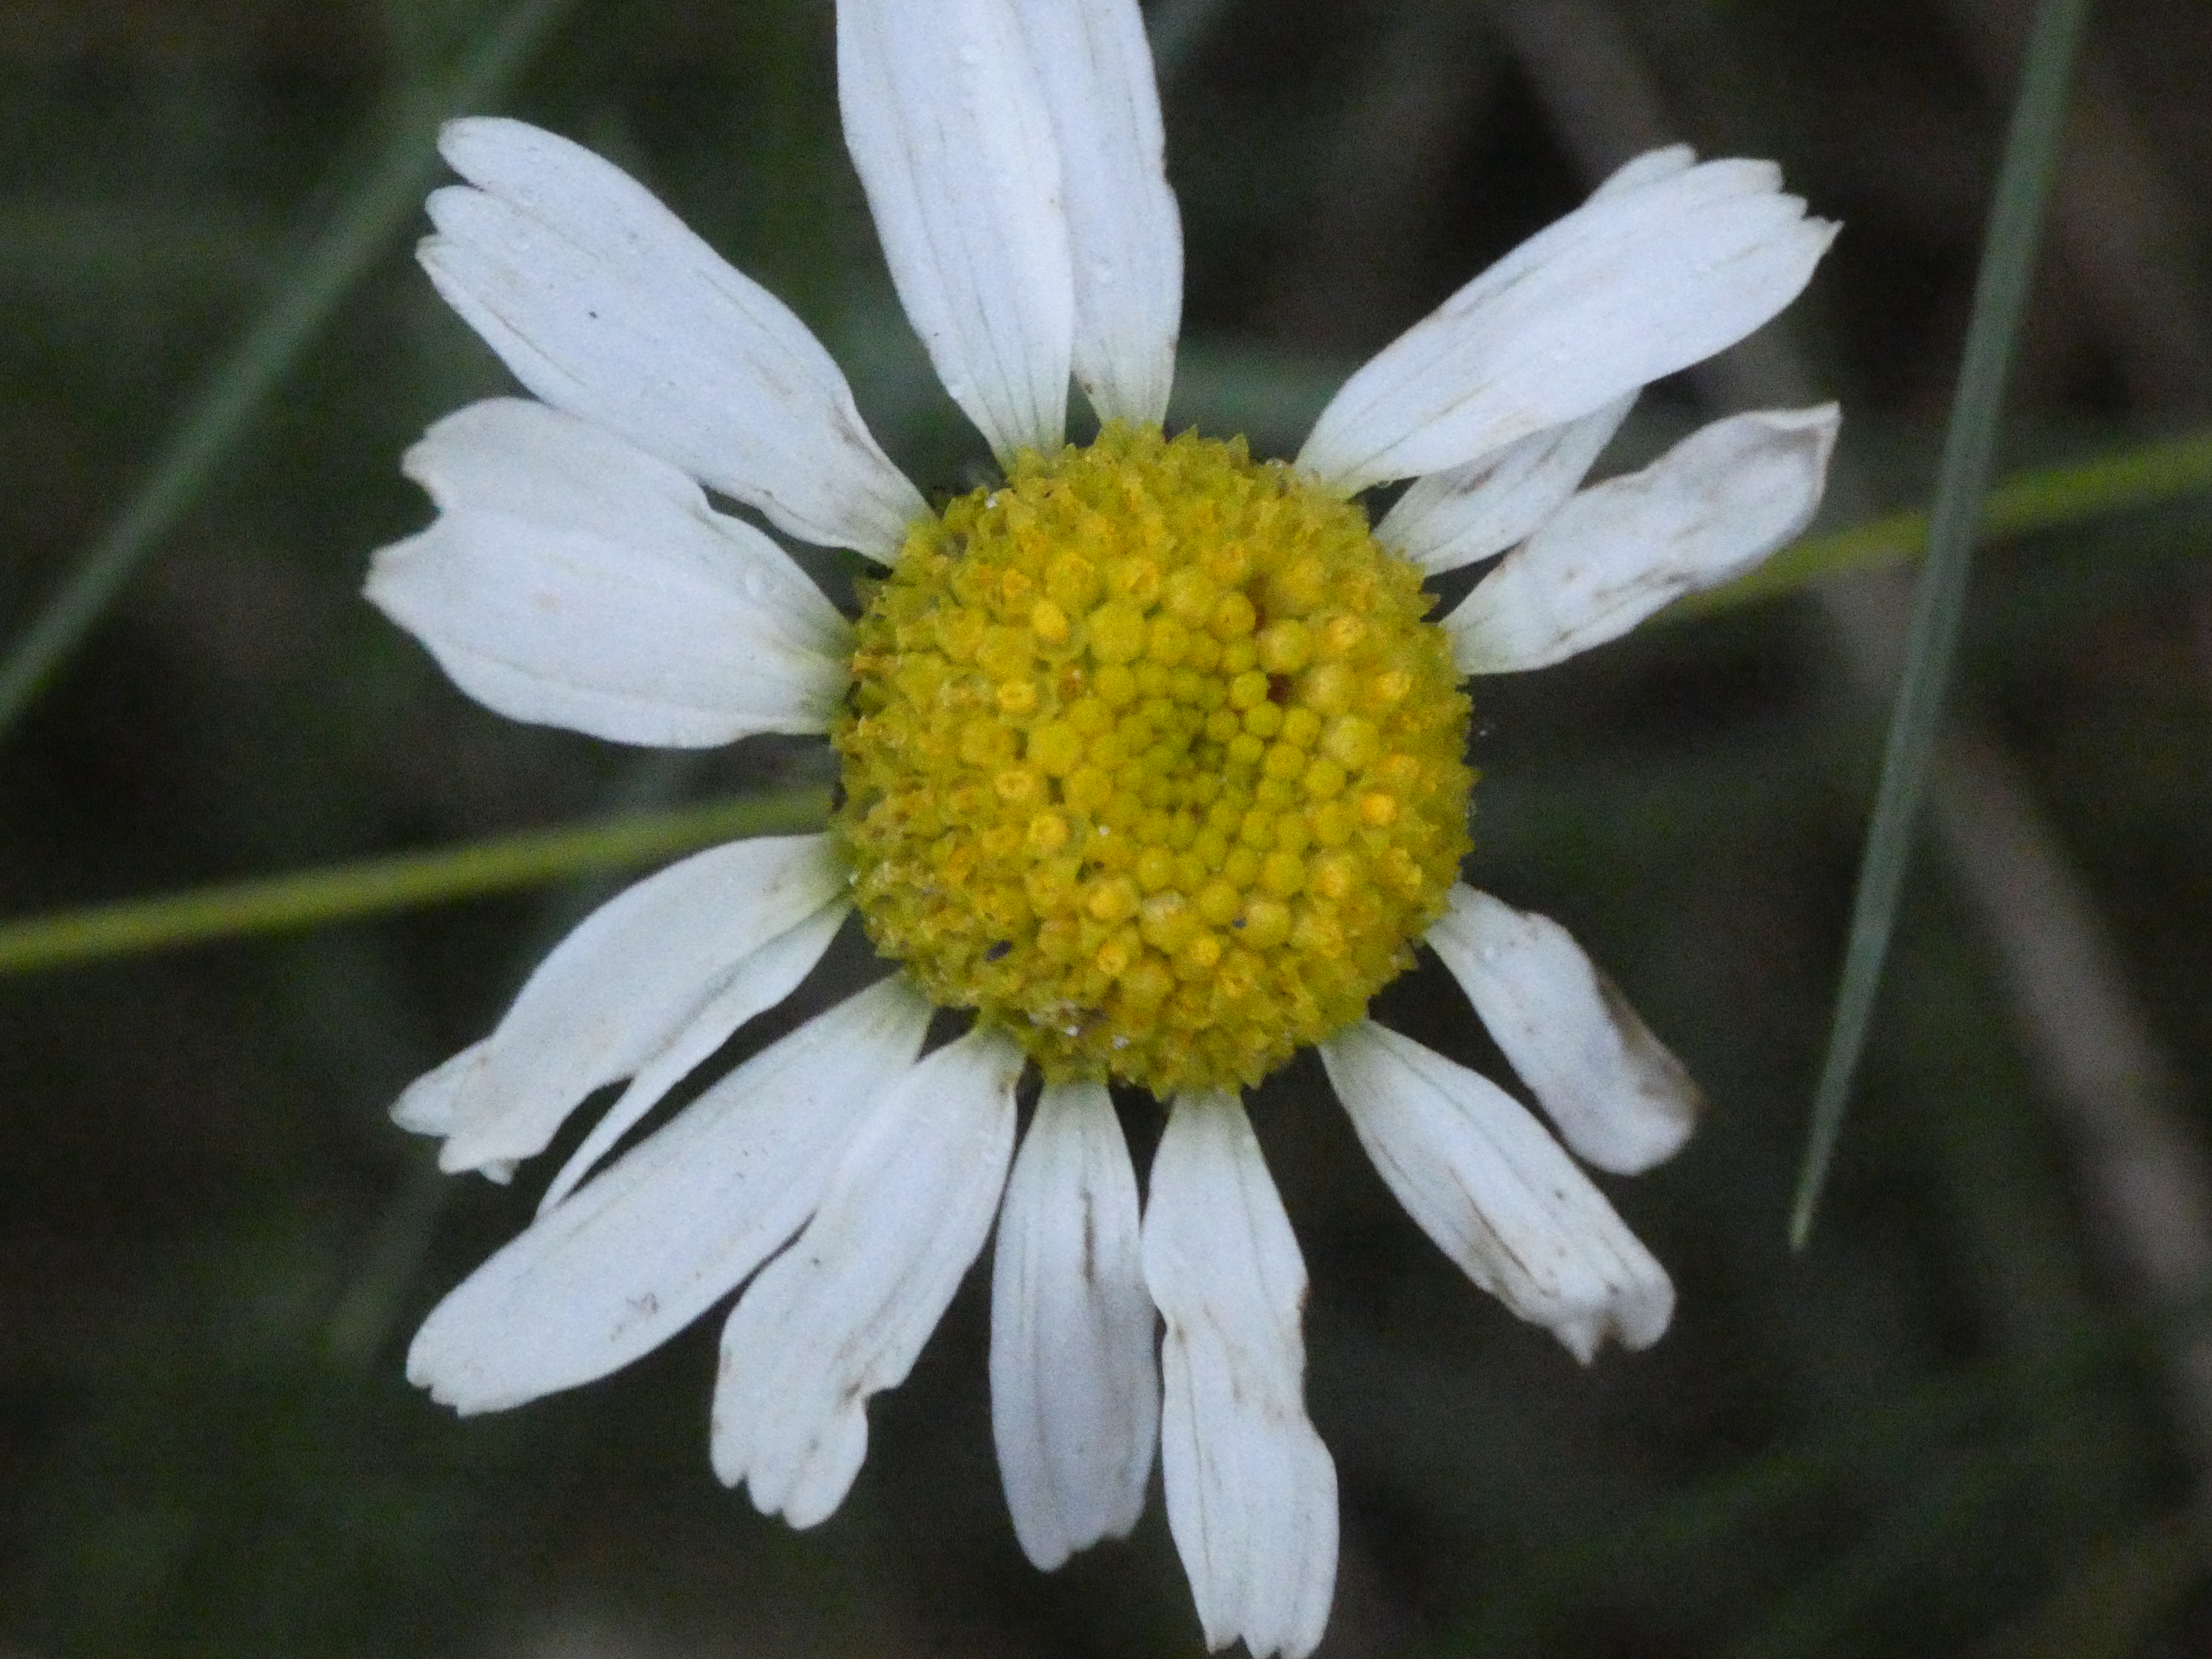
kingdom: Plantae
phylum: Tracheophyta
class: Magnoliopsida
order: Asterales
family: Asteraceae
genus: Tripleurospermum
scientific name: Tripleurospermum maritimum
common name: Strand-kamille
